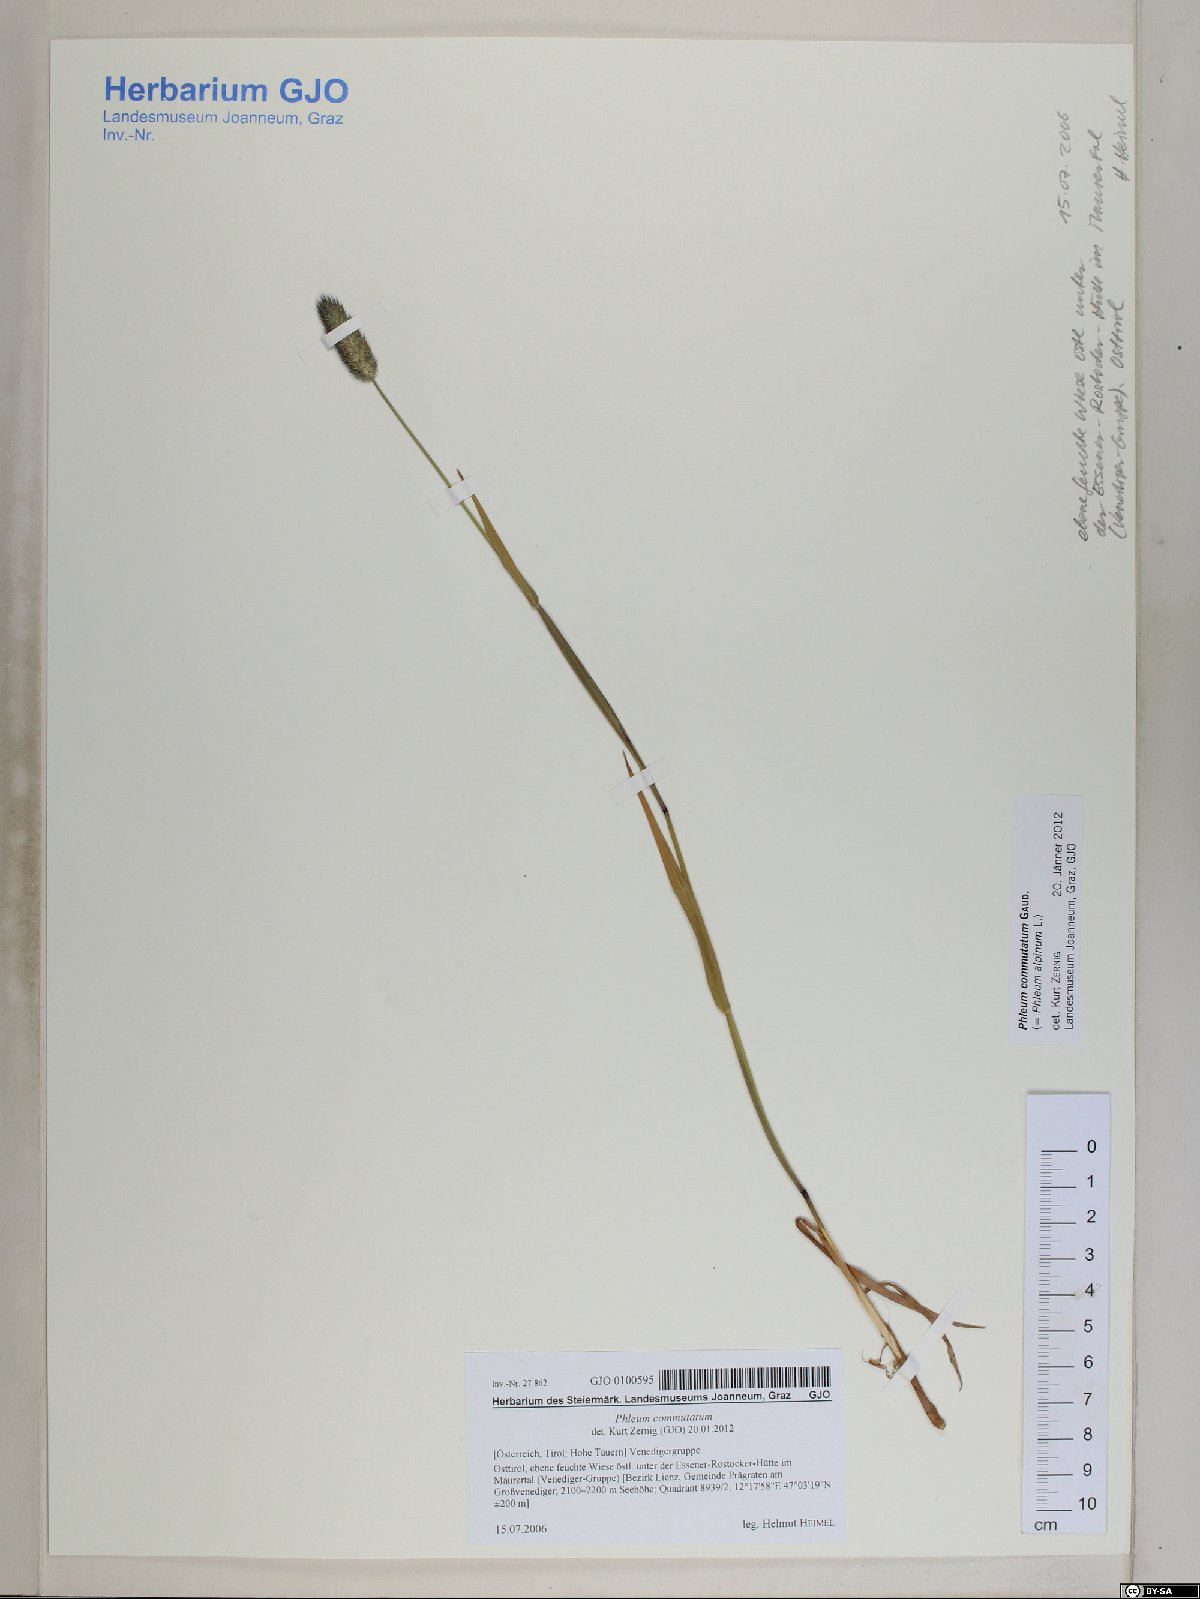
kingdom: Plantae
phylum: Tracheophyta
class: Liliopsida
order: Poales
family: Poaceae
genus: Phleum
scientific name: Phleum alpinum
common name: Alpine cat's-tail
